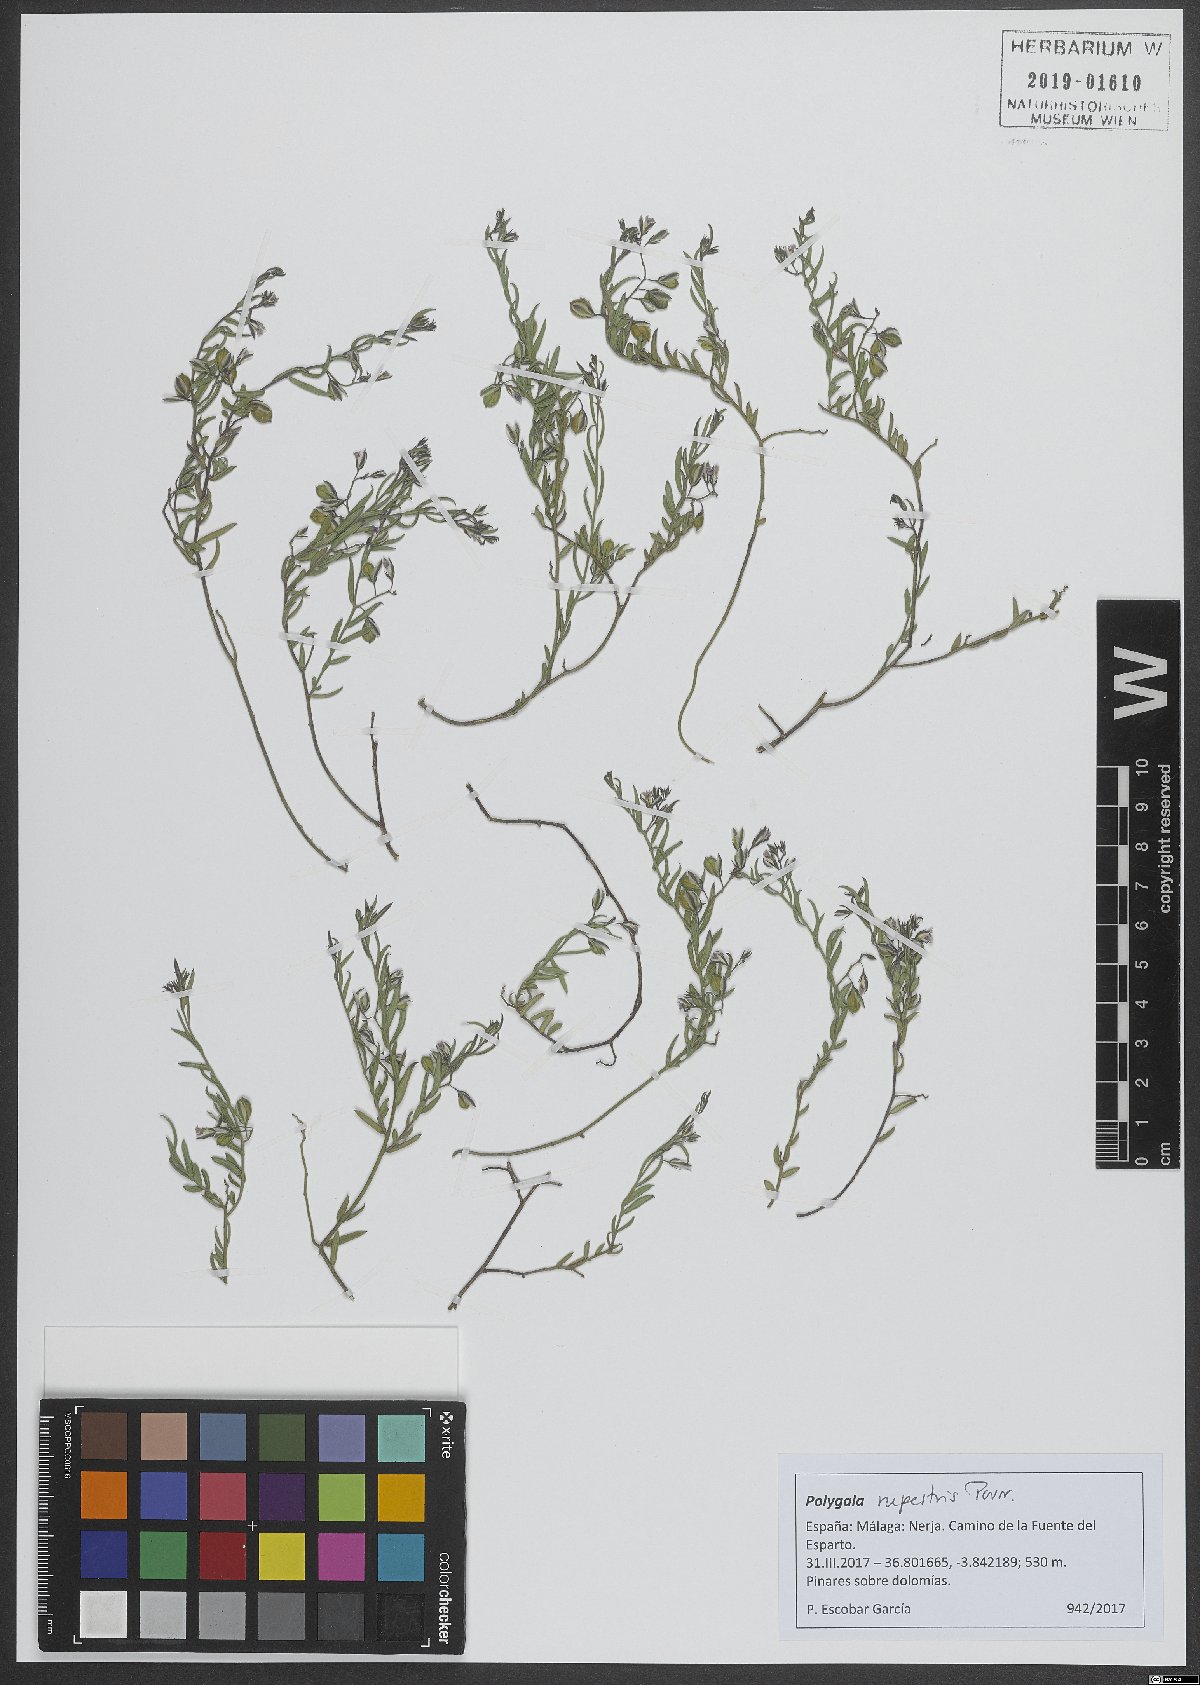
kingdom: Plantae
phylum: Tracheophyta
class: Magnoliopsida
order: Fabales
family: Polygalaceae
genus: Polygala
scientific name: Polygala rupestris
